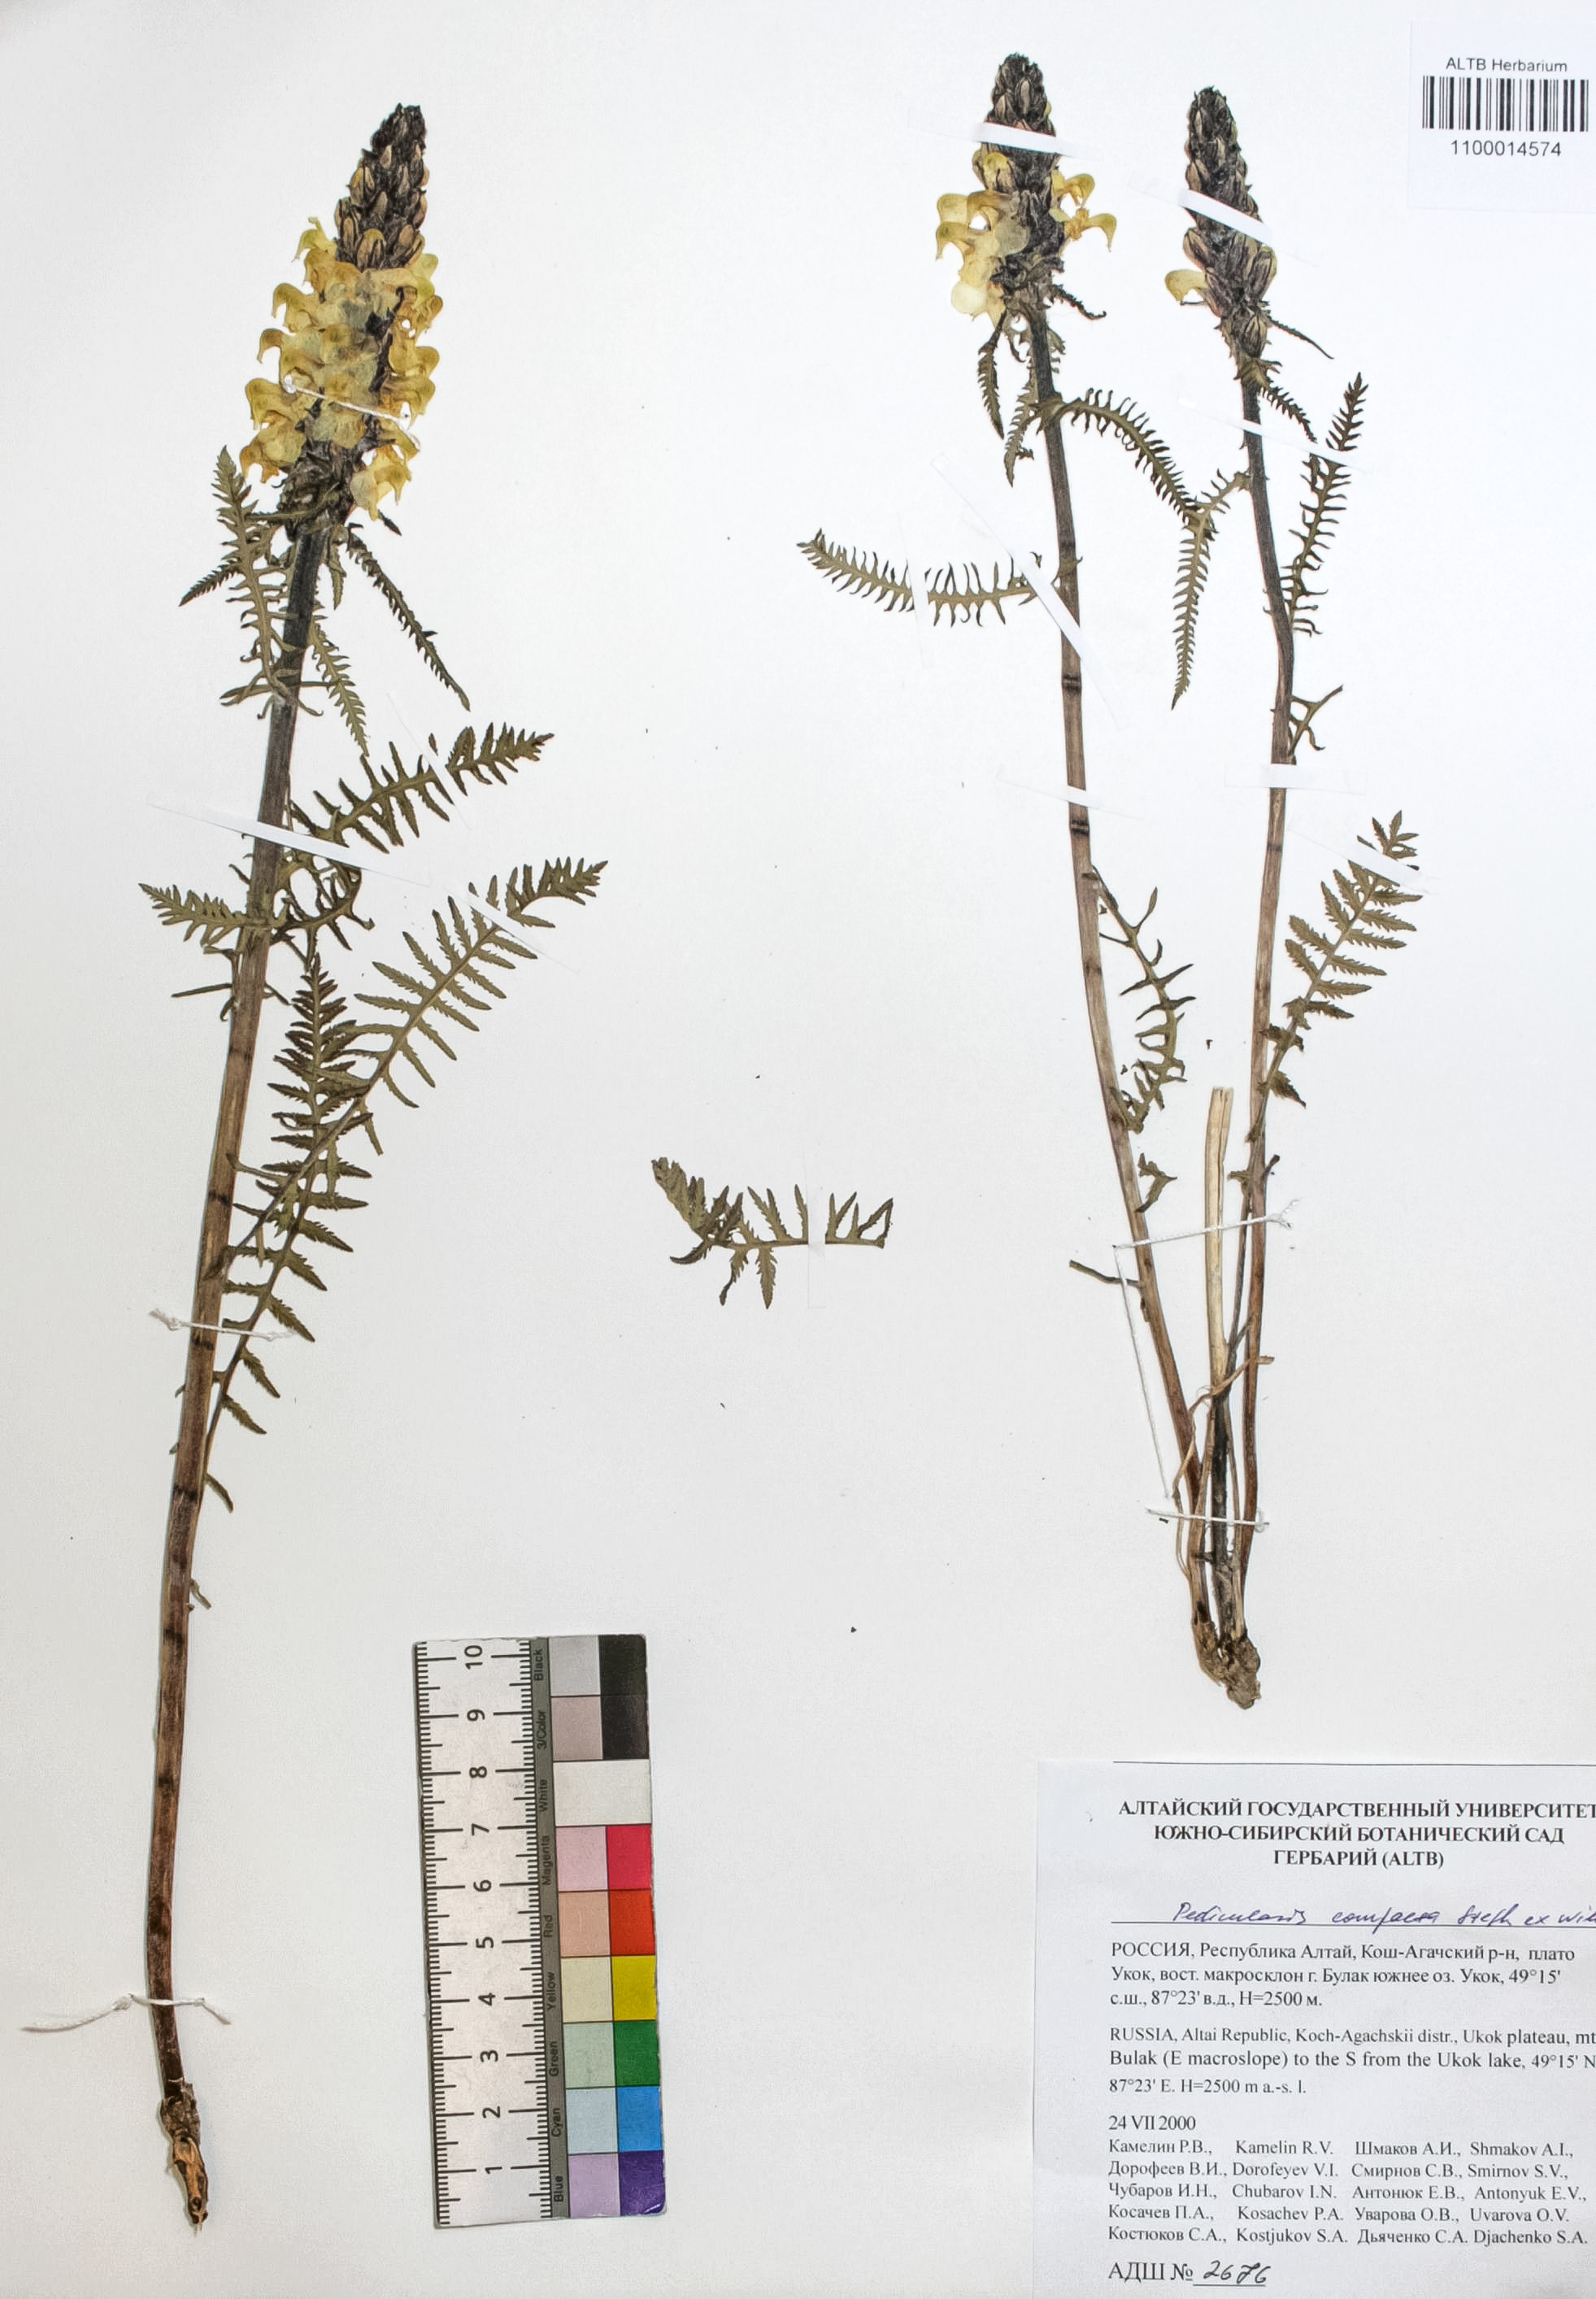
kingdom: Plantae
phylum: Tracheophyta
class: Magnoliopsida
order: Lamiales
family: Orobanchaceae
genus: Pedicularis
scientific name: Pedicularis compacta
